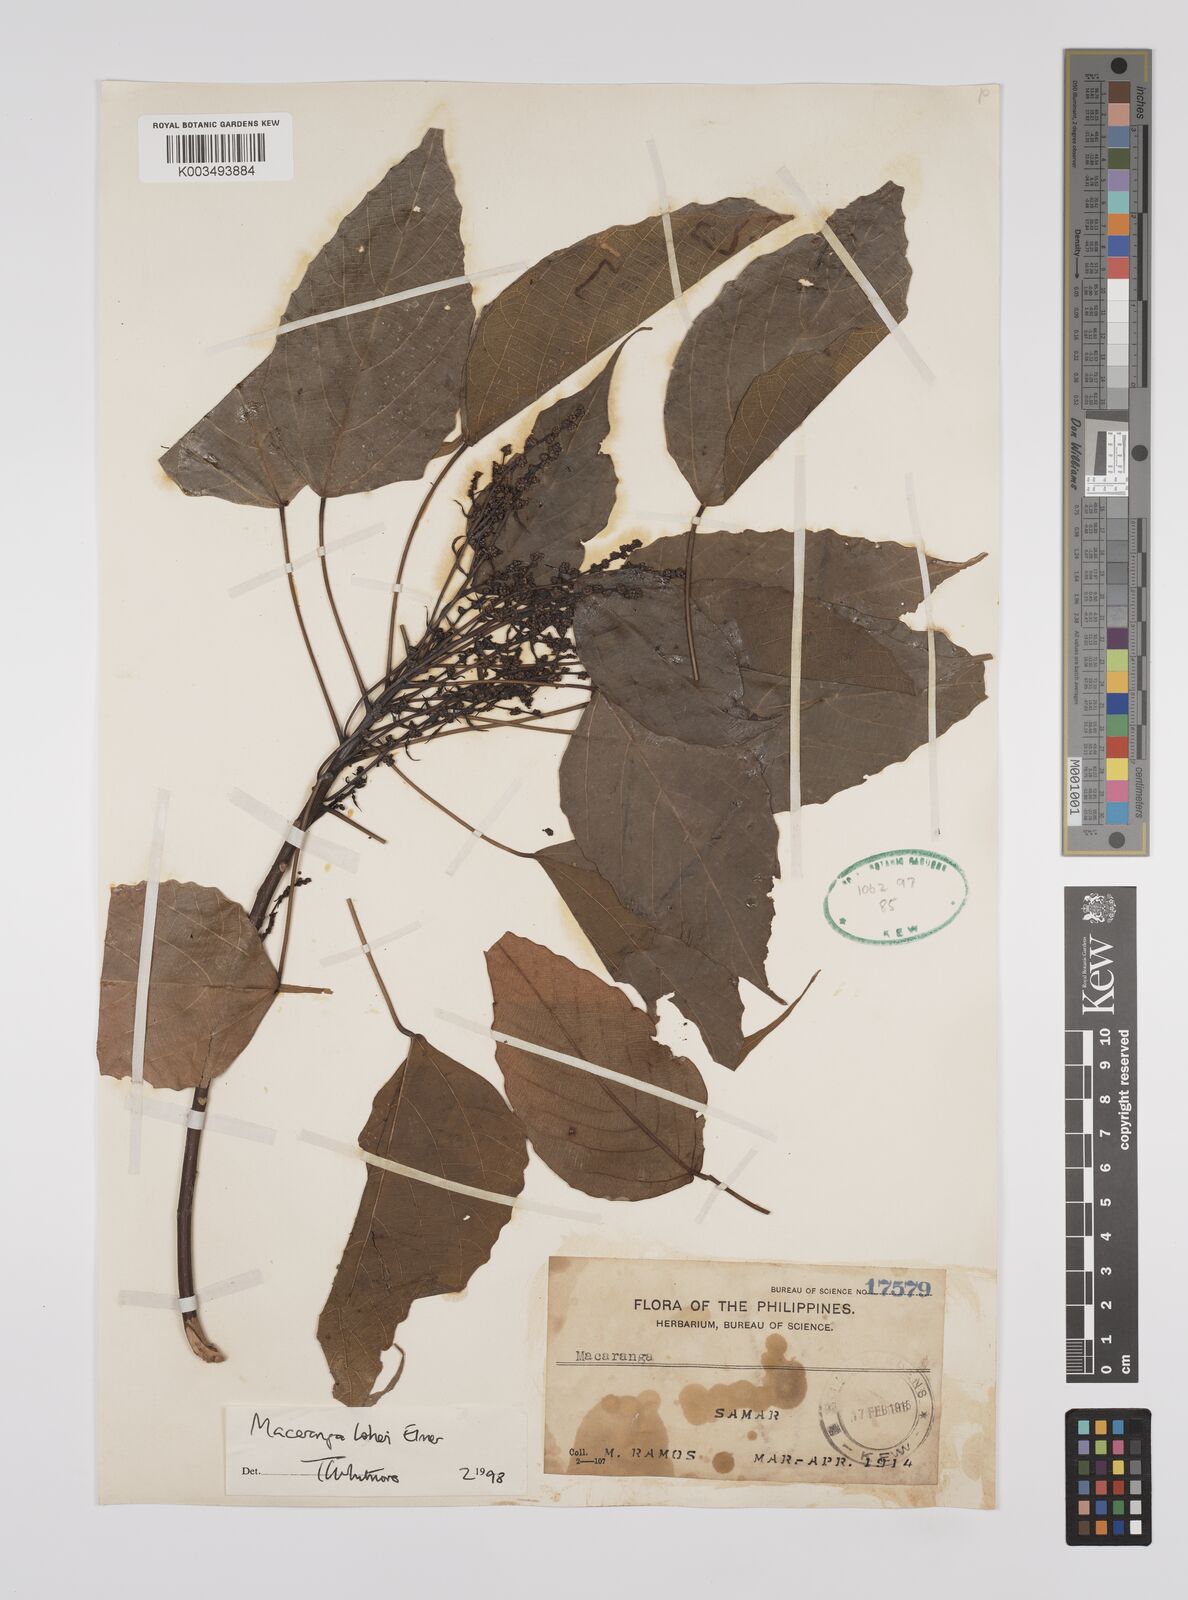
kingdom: Plantae
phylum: Tracheophyta
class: Magnoliopsida
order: Malpighiales
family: Euphorbiaceae
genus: Macaranga
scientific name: Macaranga loheri
